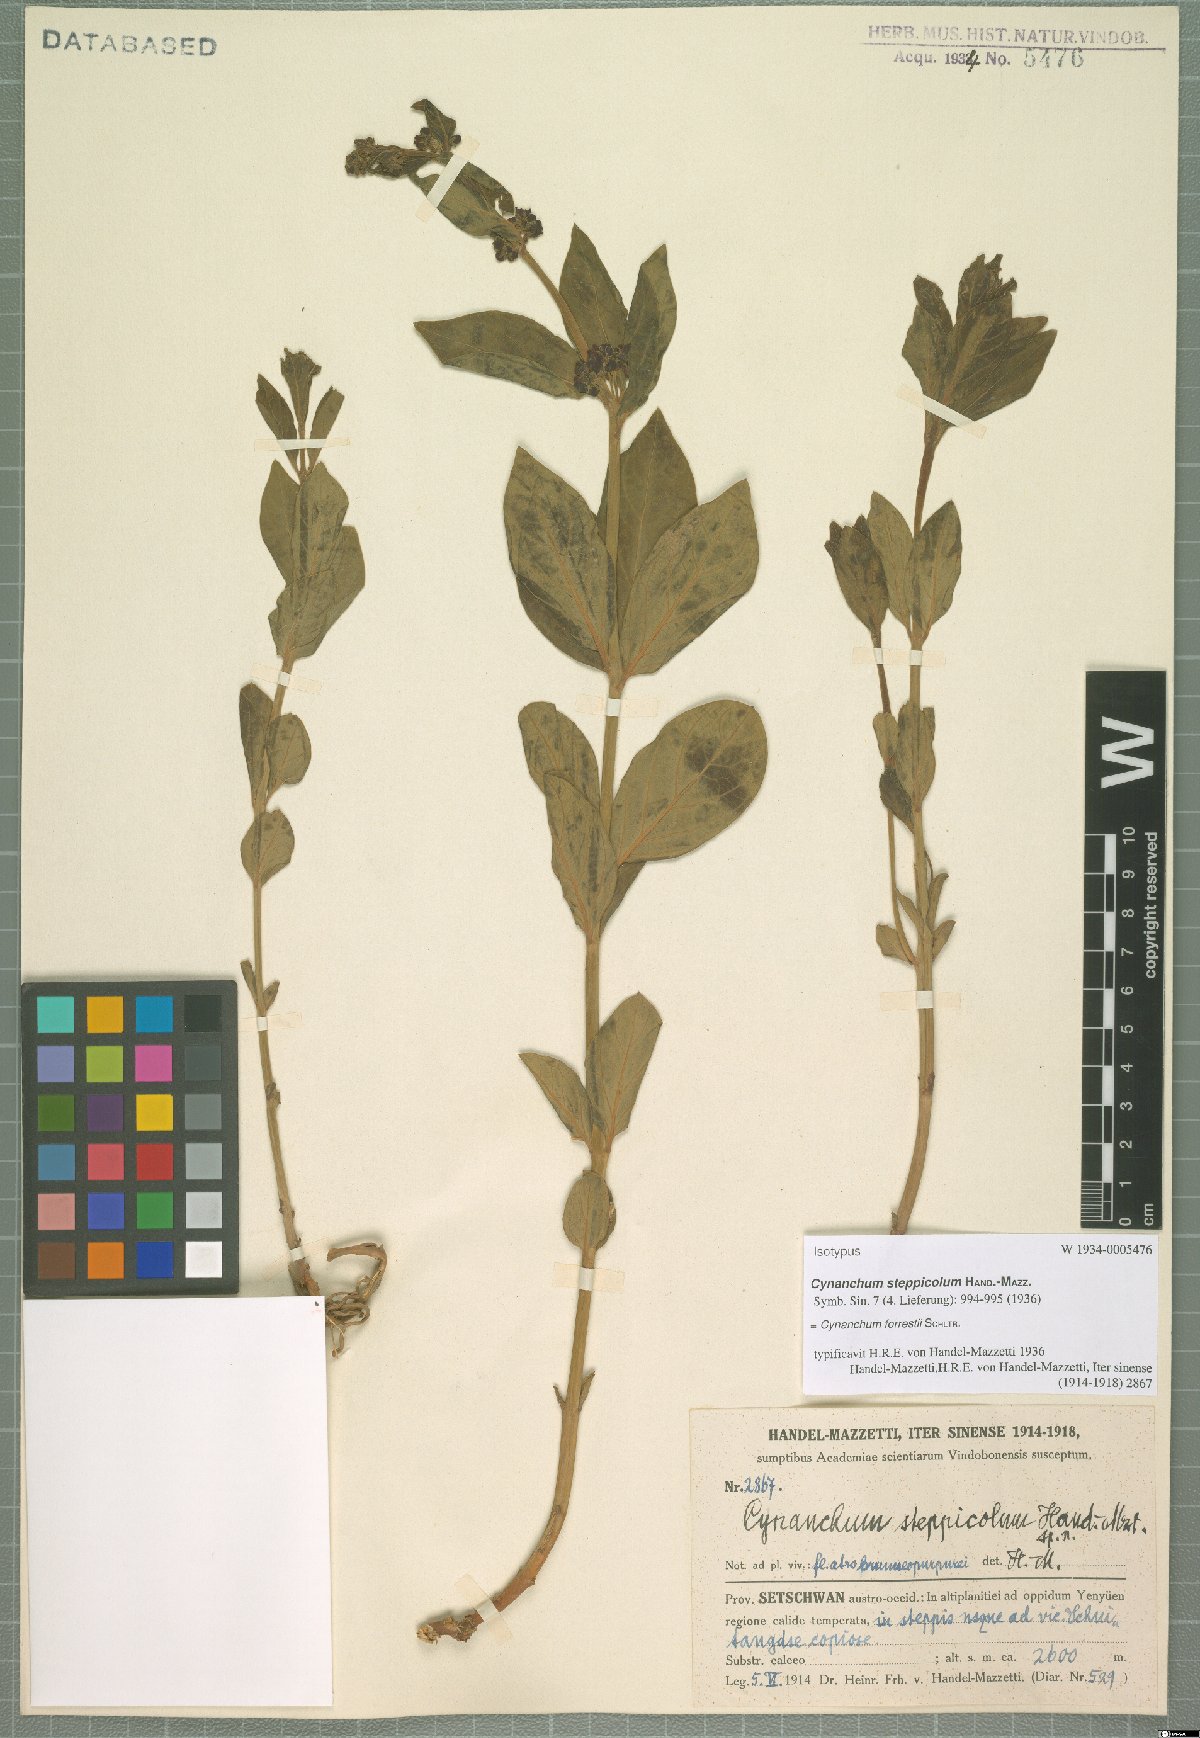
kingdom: Plantae
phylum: Tracheophyta
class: Magnoliopsida
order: Gentianales
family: Apocynaceae
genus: Vincetoxicum
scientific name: Vincetoxicum forrestii
